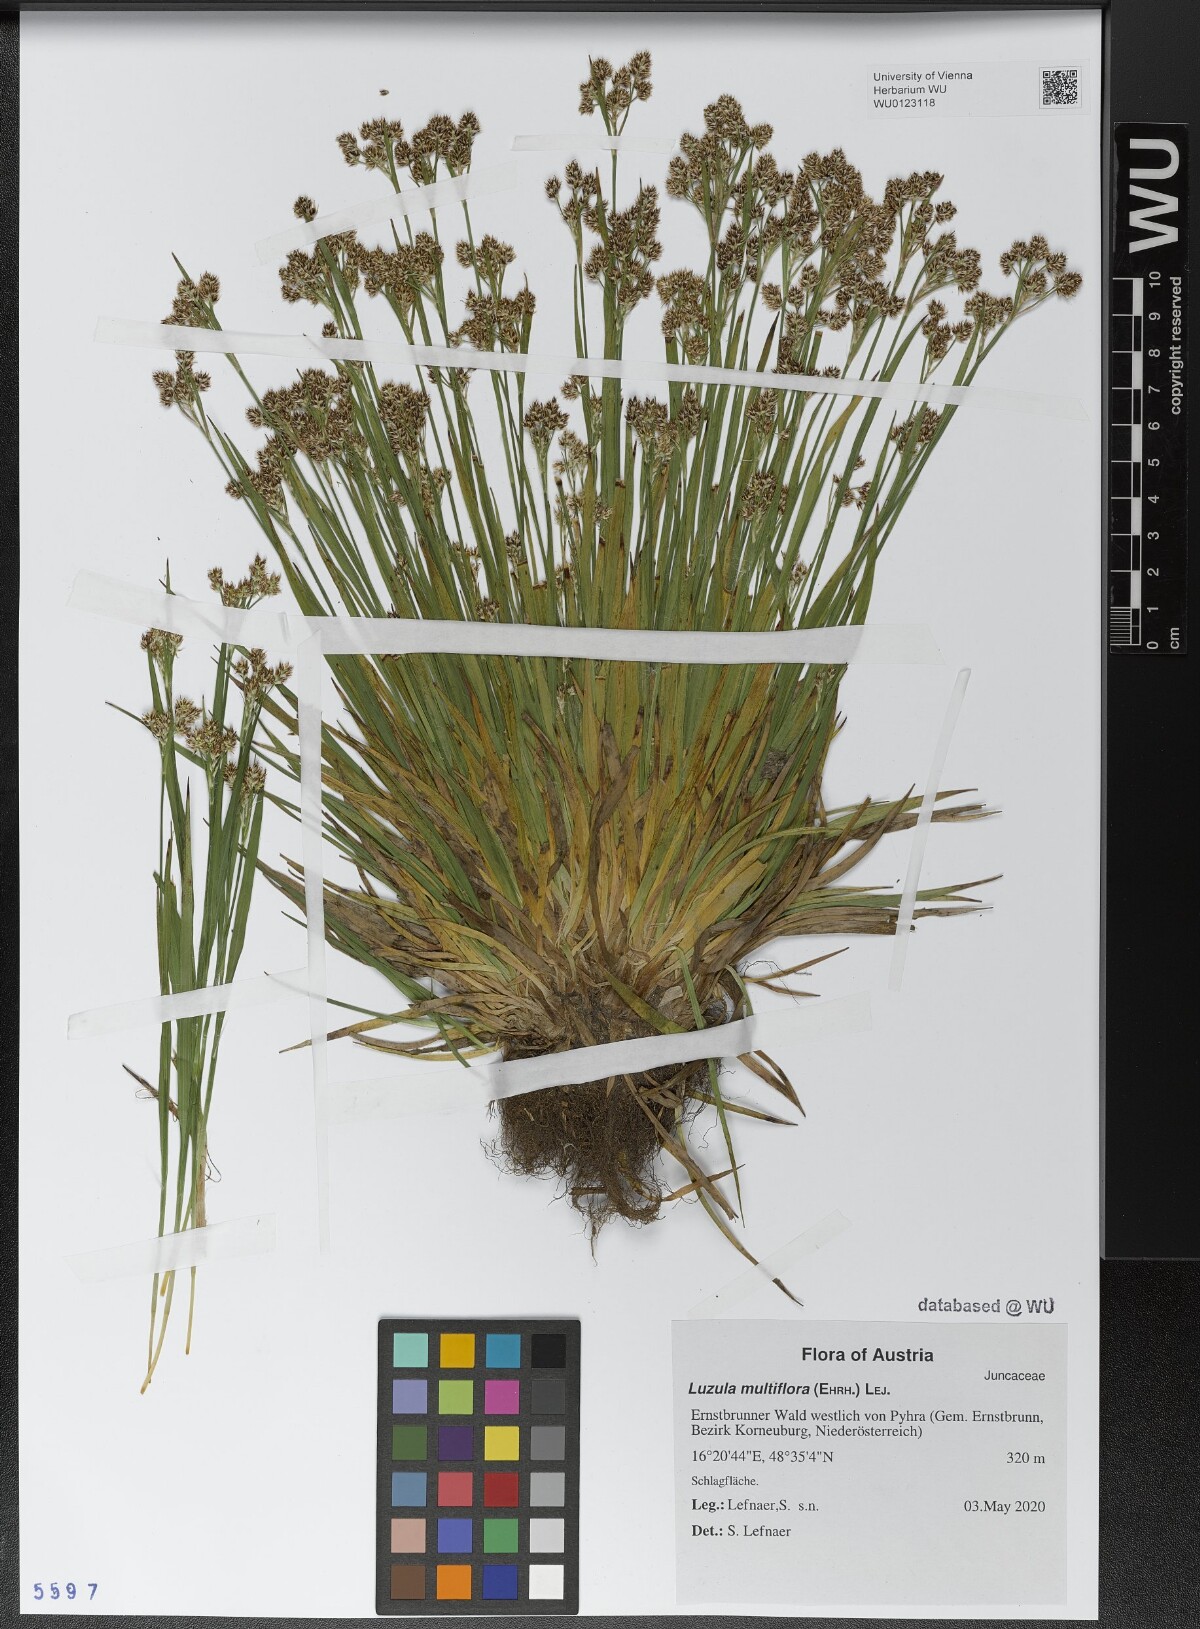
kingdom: Plantae
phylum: Tracheophyta
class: Liliopsida
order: Poales
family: Juncaceae
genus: Luzula
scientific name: Luzula multiflora
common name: Heath wood-rush
